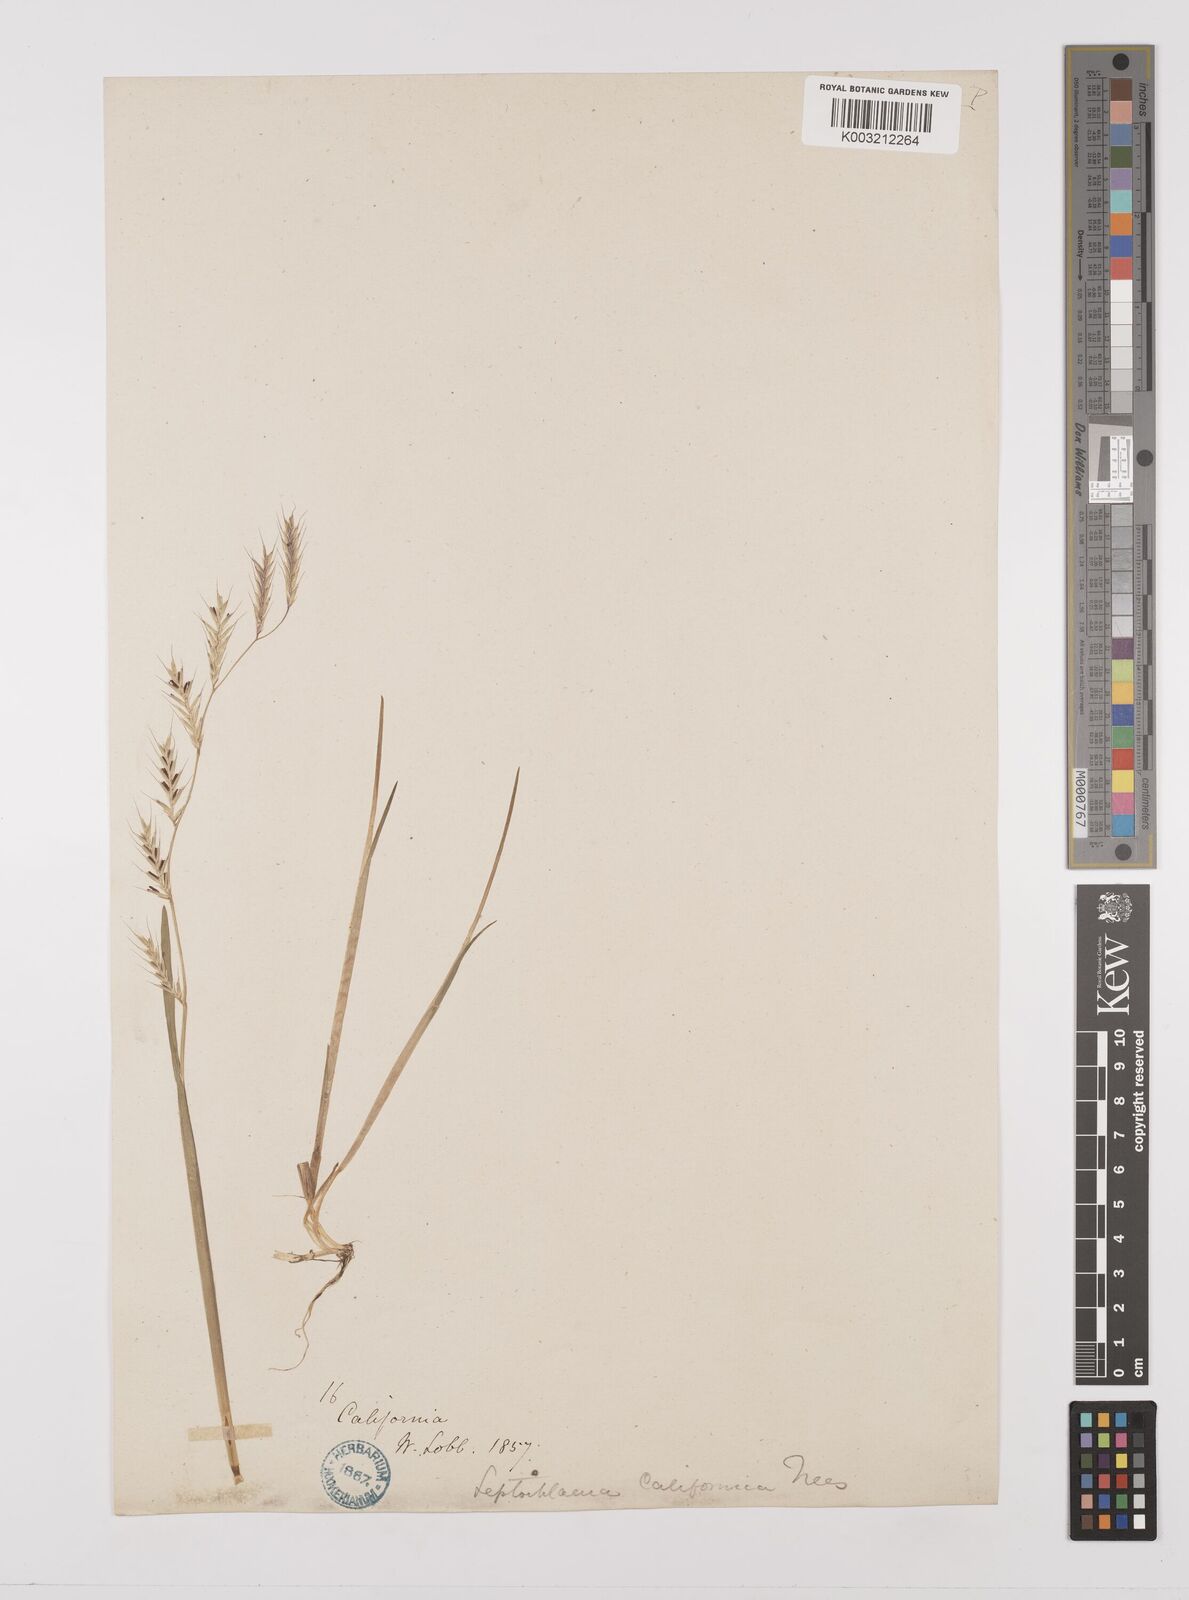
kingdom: Plantae
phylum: Tracheophyta
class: Liliopsida
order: Poales
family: Poaceae
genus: Pleuropogon
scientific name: Pleuropogon californicus
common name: California semaphore grass
